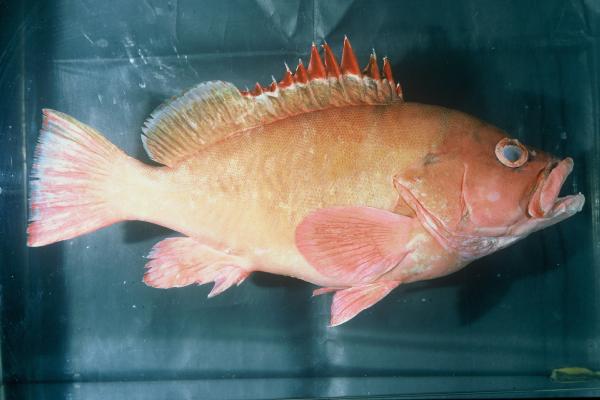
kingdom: Animalia
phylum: Chordata
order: Perciformes
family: Serranidae
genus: Epinephelus
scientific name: Epinephelus retouti
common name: Red-tipped grouper
